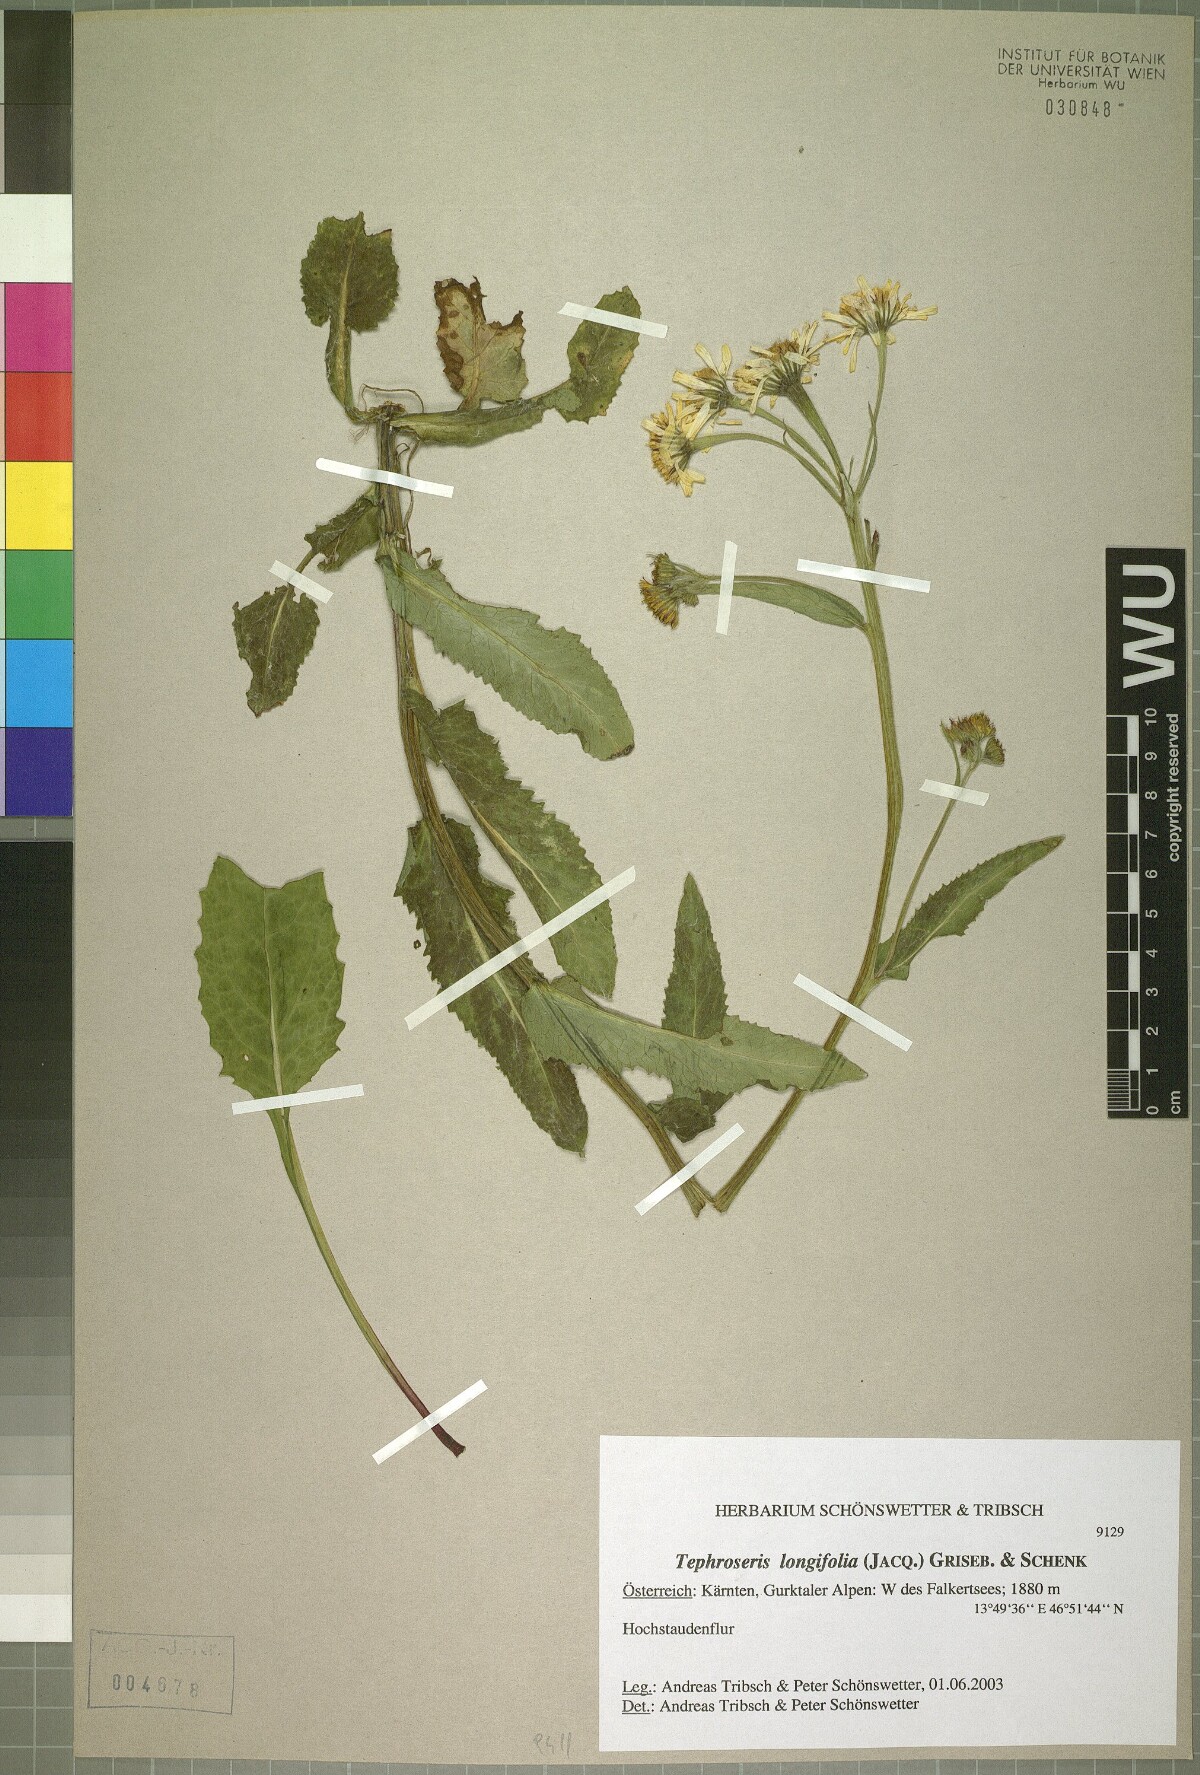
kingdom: Plantae
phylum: Tracheophyta
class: Magnoliopsida
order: Asterales
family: Asteraceae
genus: Tephroseris
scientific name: Tephroseris crispa
